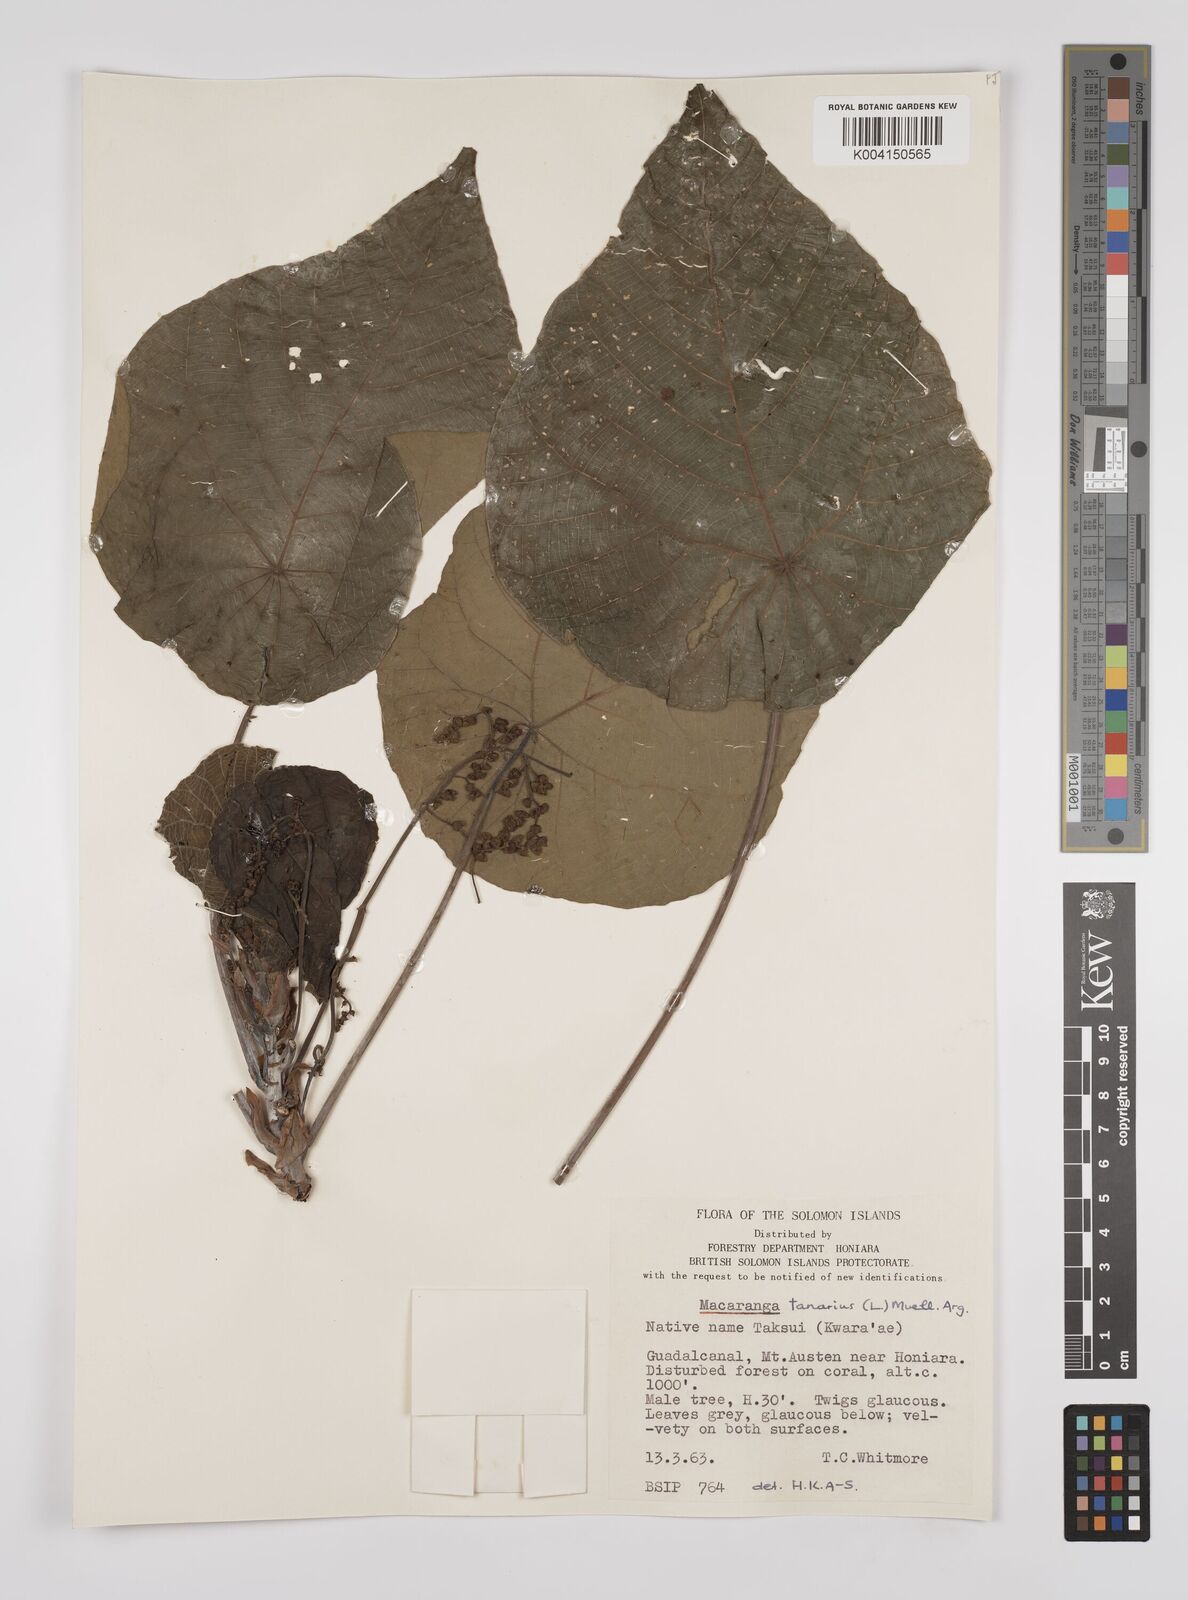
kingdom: Plantae
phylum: Tracheophyta
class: Magnoliopsida
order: Malpighiales
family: Euphorbiaceae
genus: Macaranga
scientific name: Macaranga tanarius
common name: Parasol leaf tree
